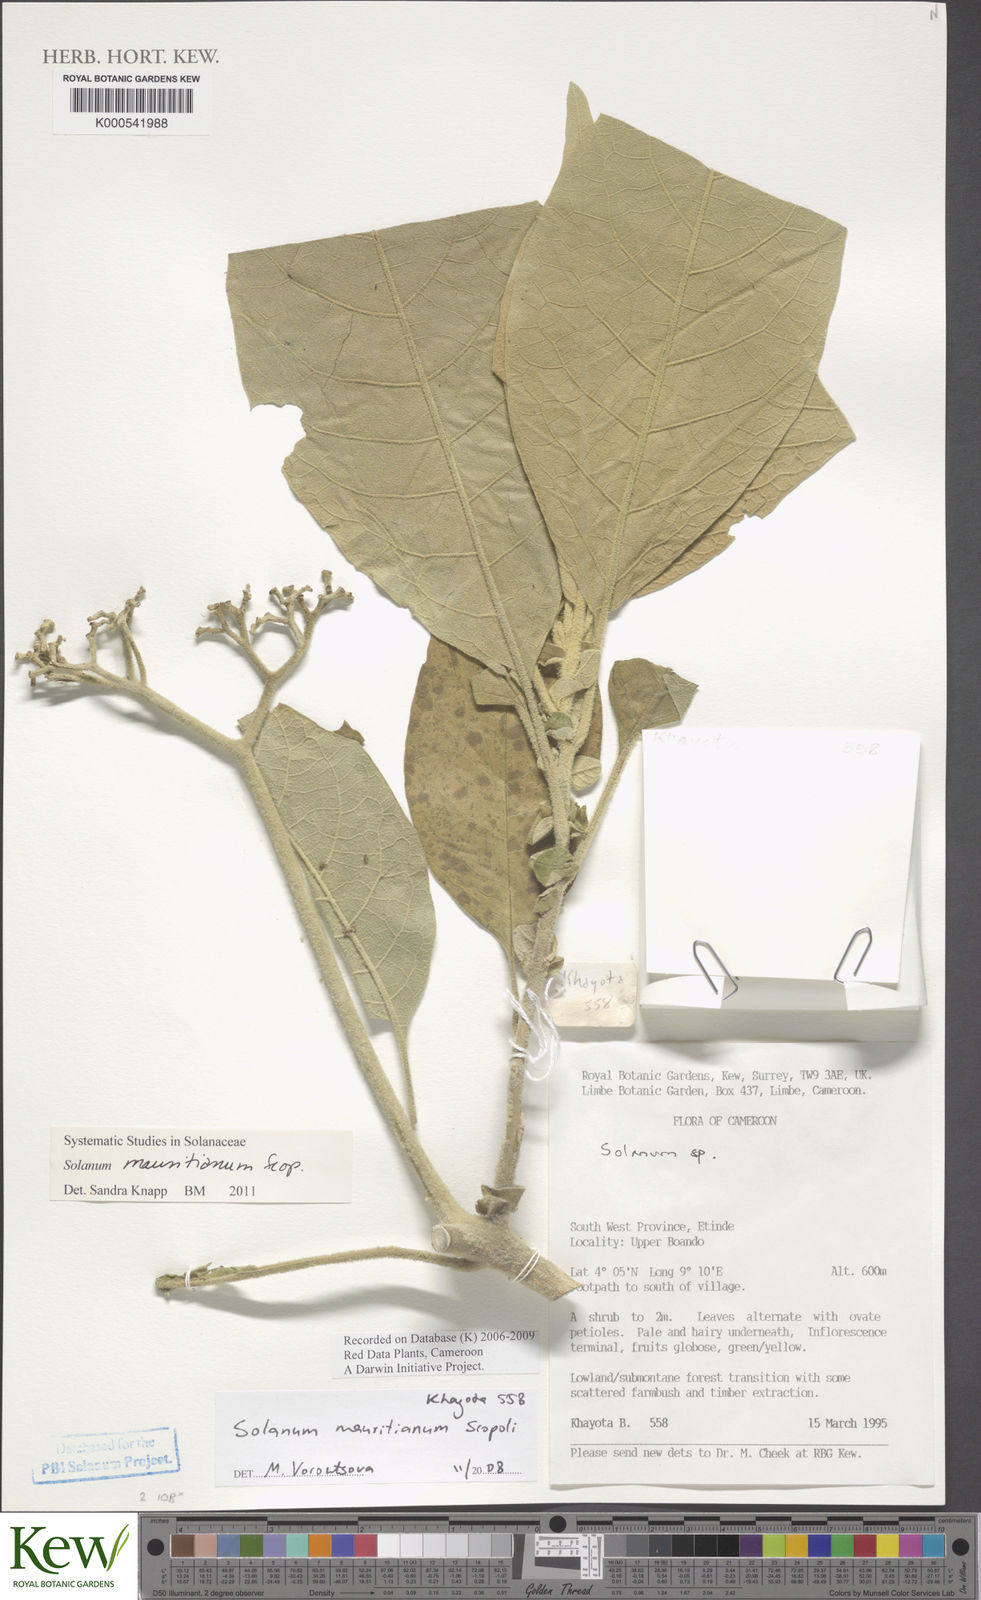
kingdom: Plantae
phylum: Tracheophyta
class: Magnoliopsida
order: Solanales
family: Solanaceae
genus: Solanum
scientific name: Solanum mauritianum
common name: Earleaf nightshade
